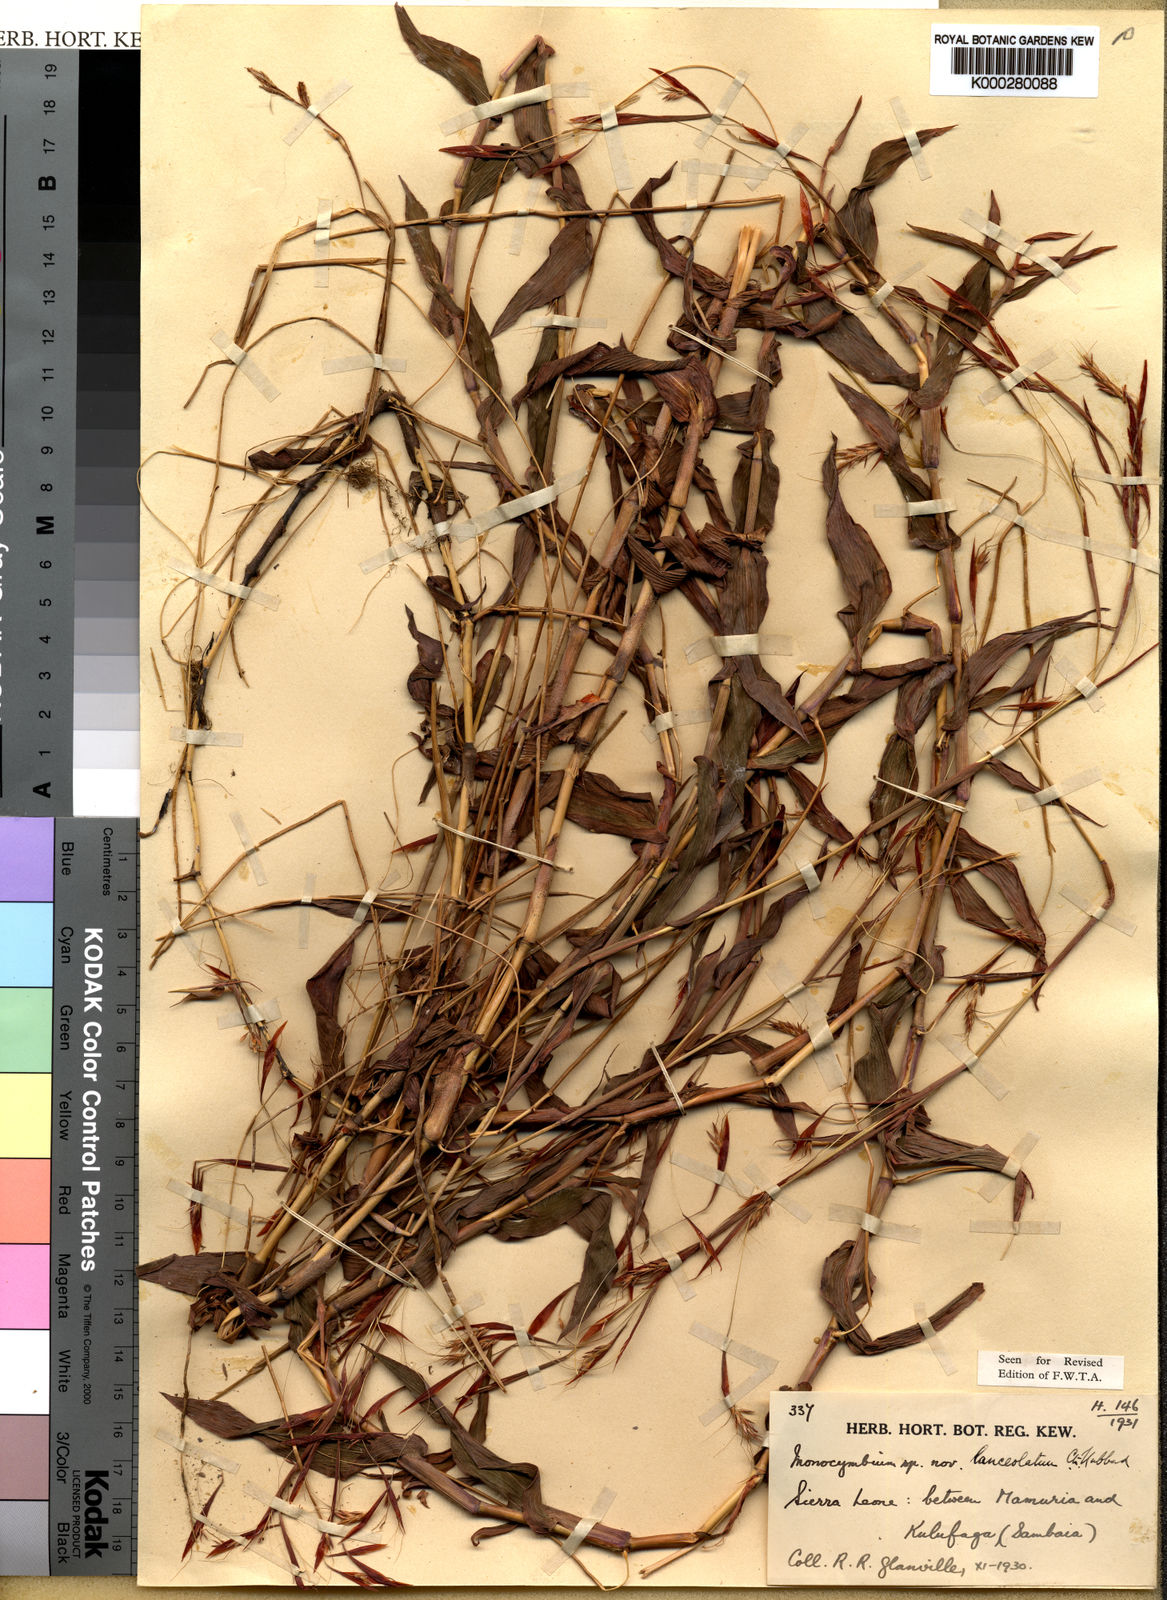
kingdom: Plantae
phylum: Tracheophyta
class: Liliopsida
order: Poales
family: Poaceae
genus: Monocymbium
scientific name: Monocymbium lanceolatum
